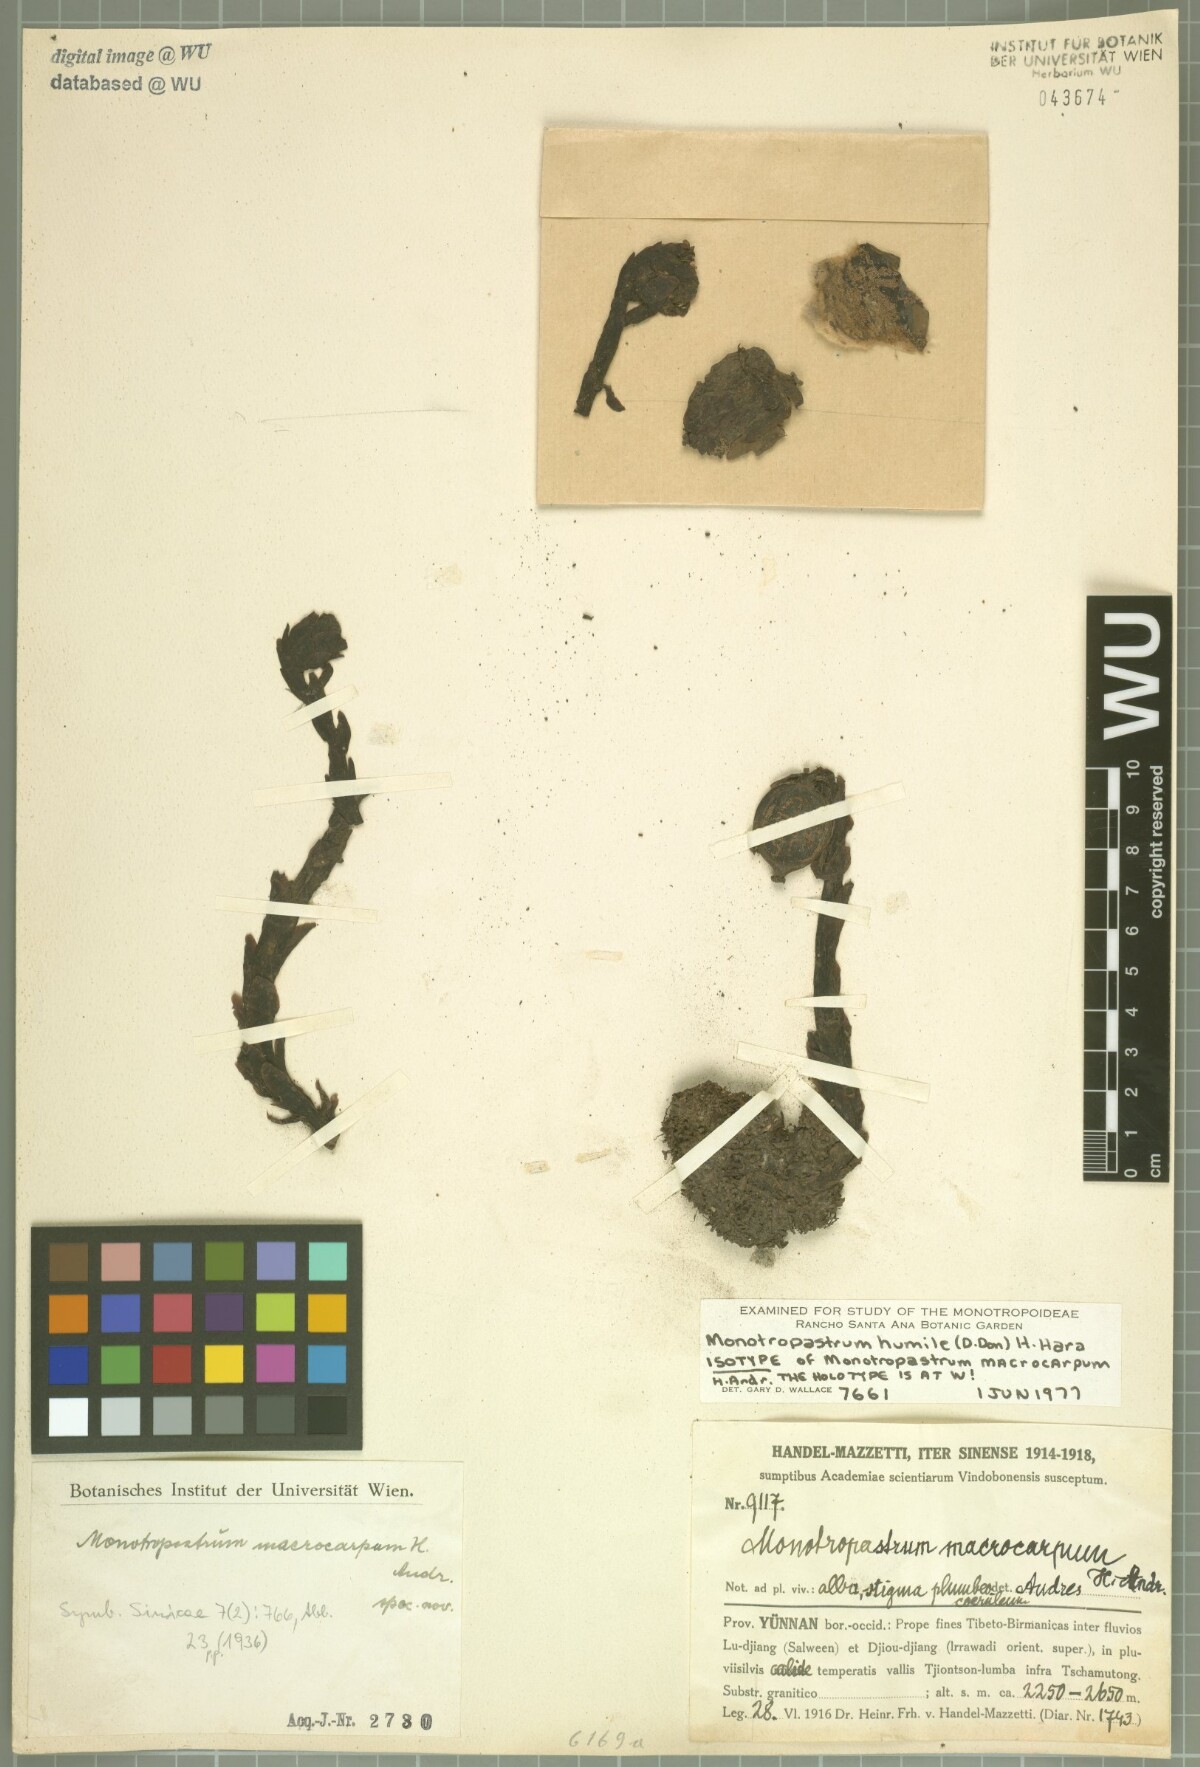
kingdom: Plantae
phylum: Tracheophyta
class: Magnoliopsida
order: Ericales
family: Ericaceae
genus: Monotropastrum
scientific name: Monotropastrum humile
